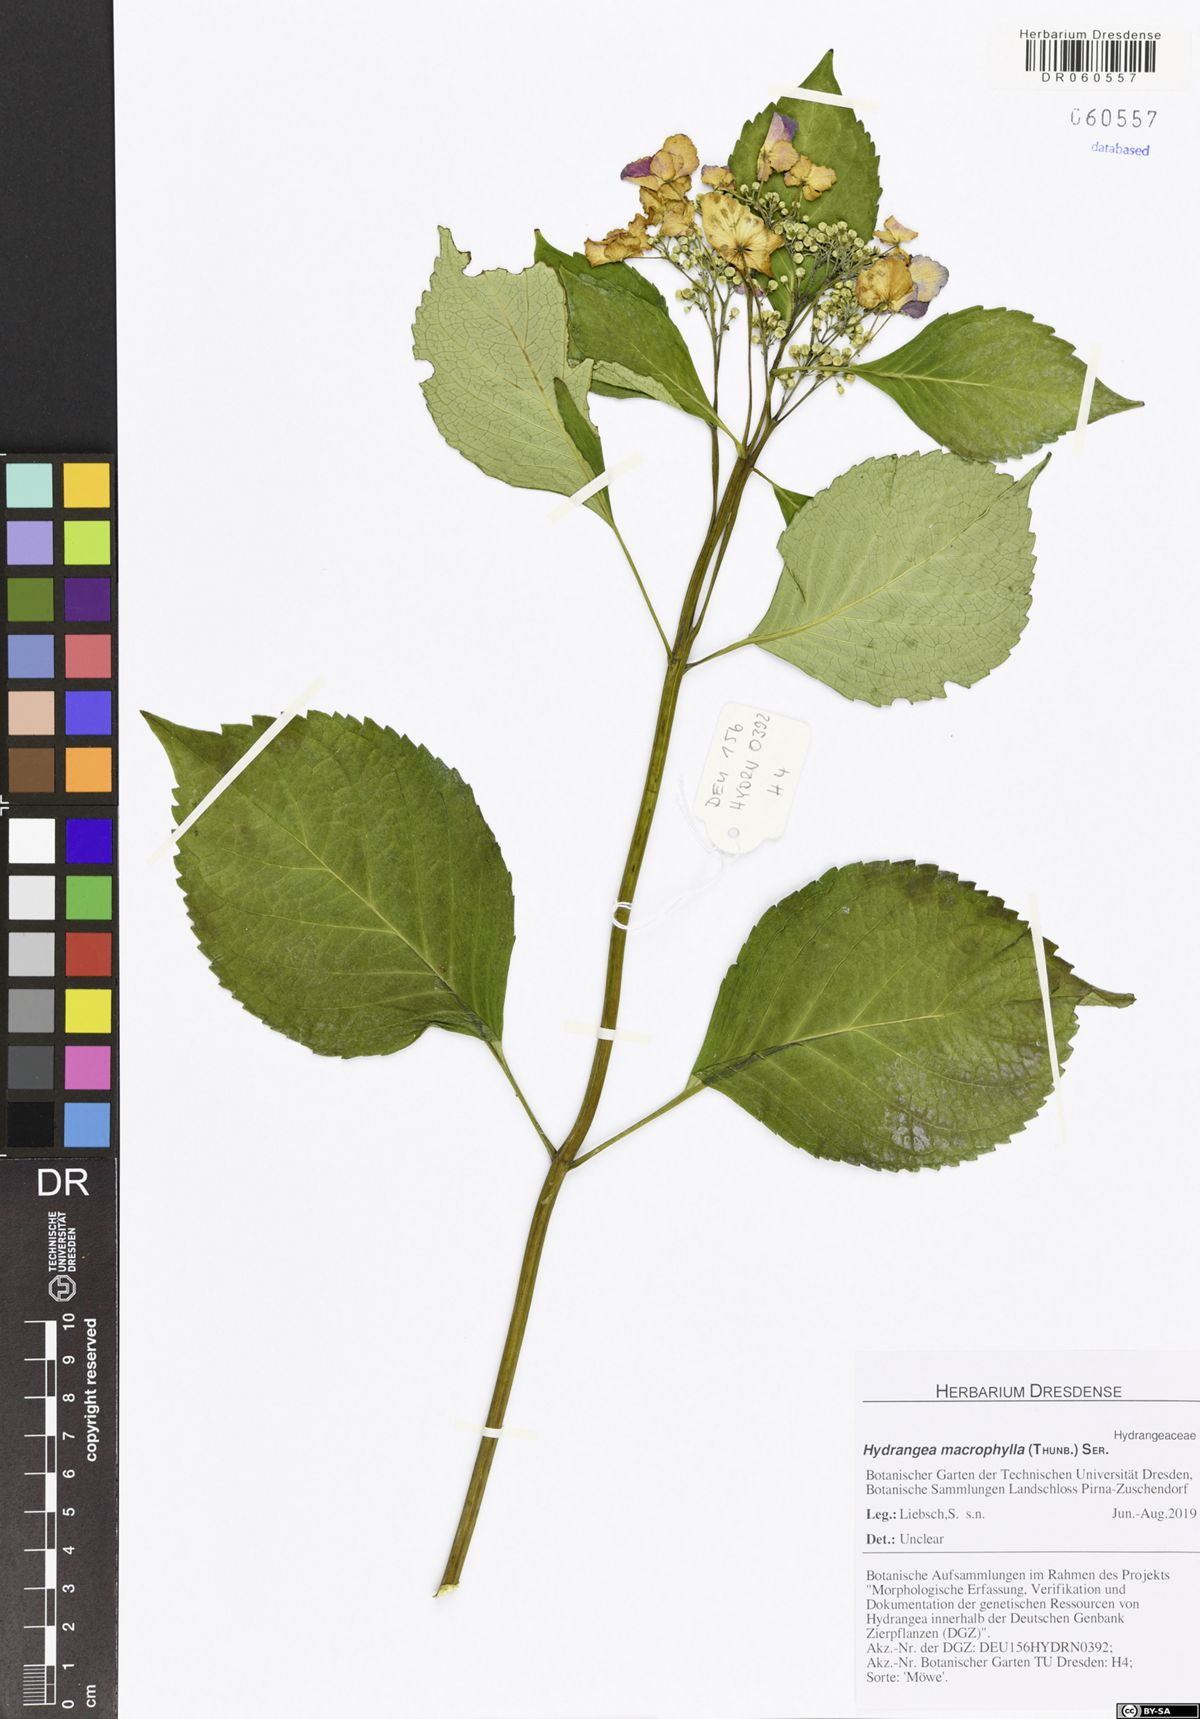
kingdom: Plantae
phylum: Tracheophyta
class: Magnoliopsida
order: Cornales
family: Hydrangeaceae
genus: Hydrangea
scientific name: Hydrangea macrophylla
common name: Hydrangea
